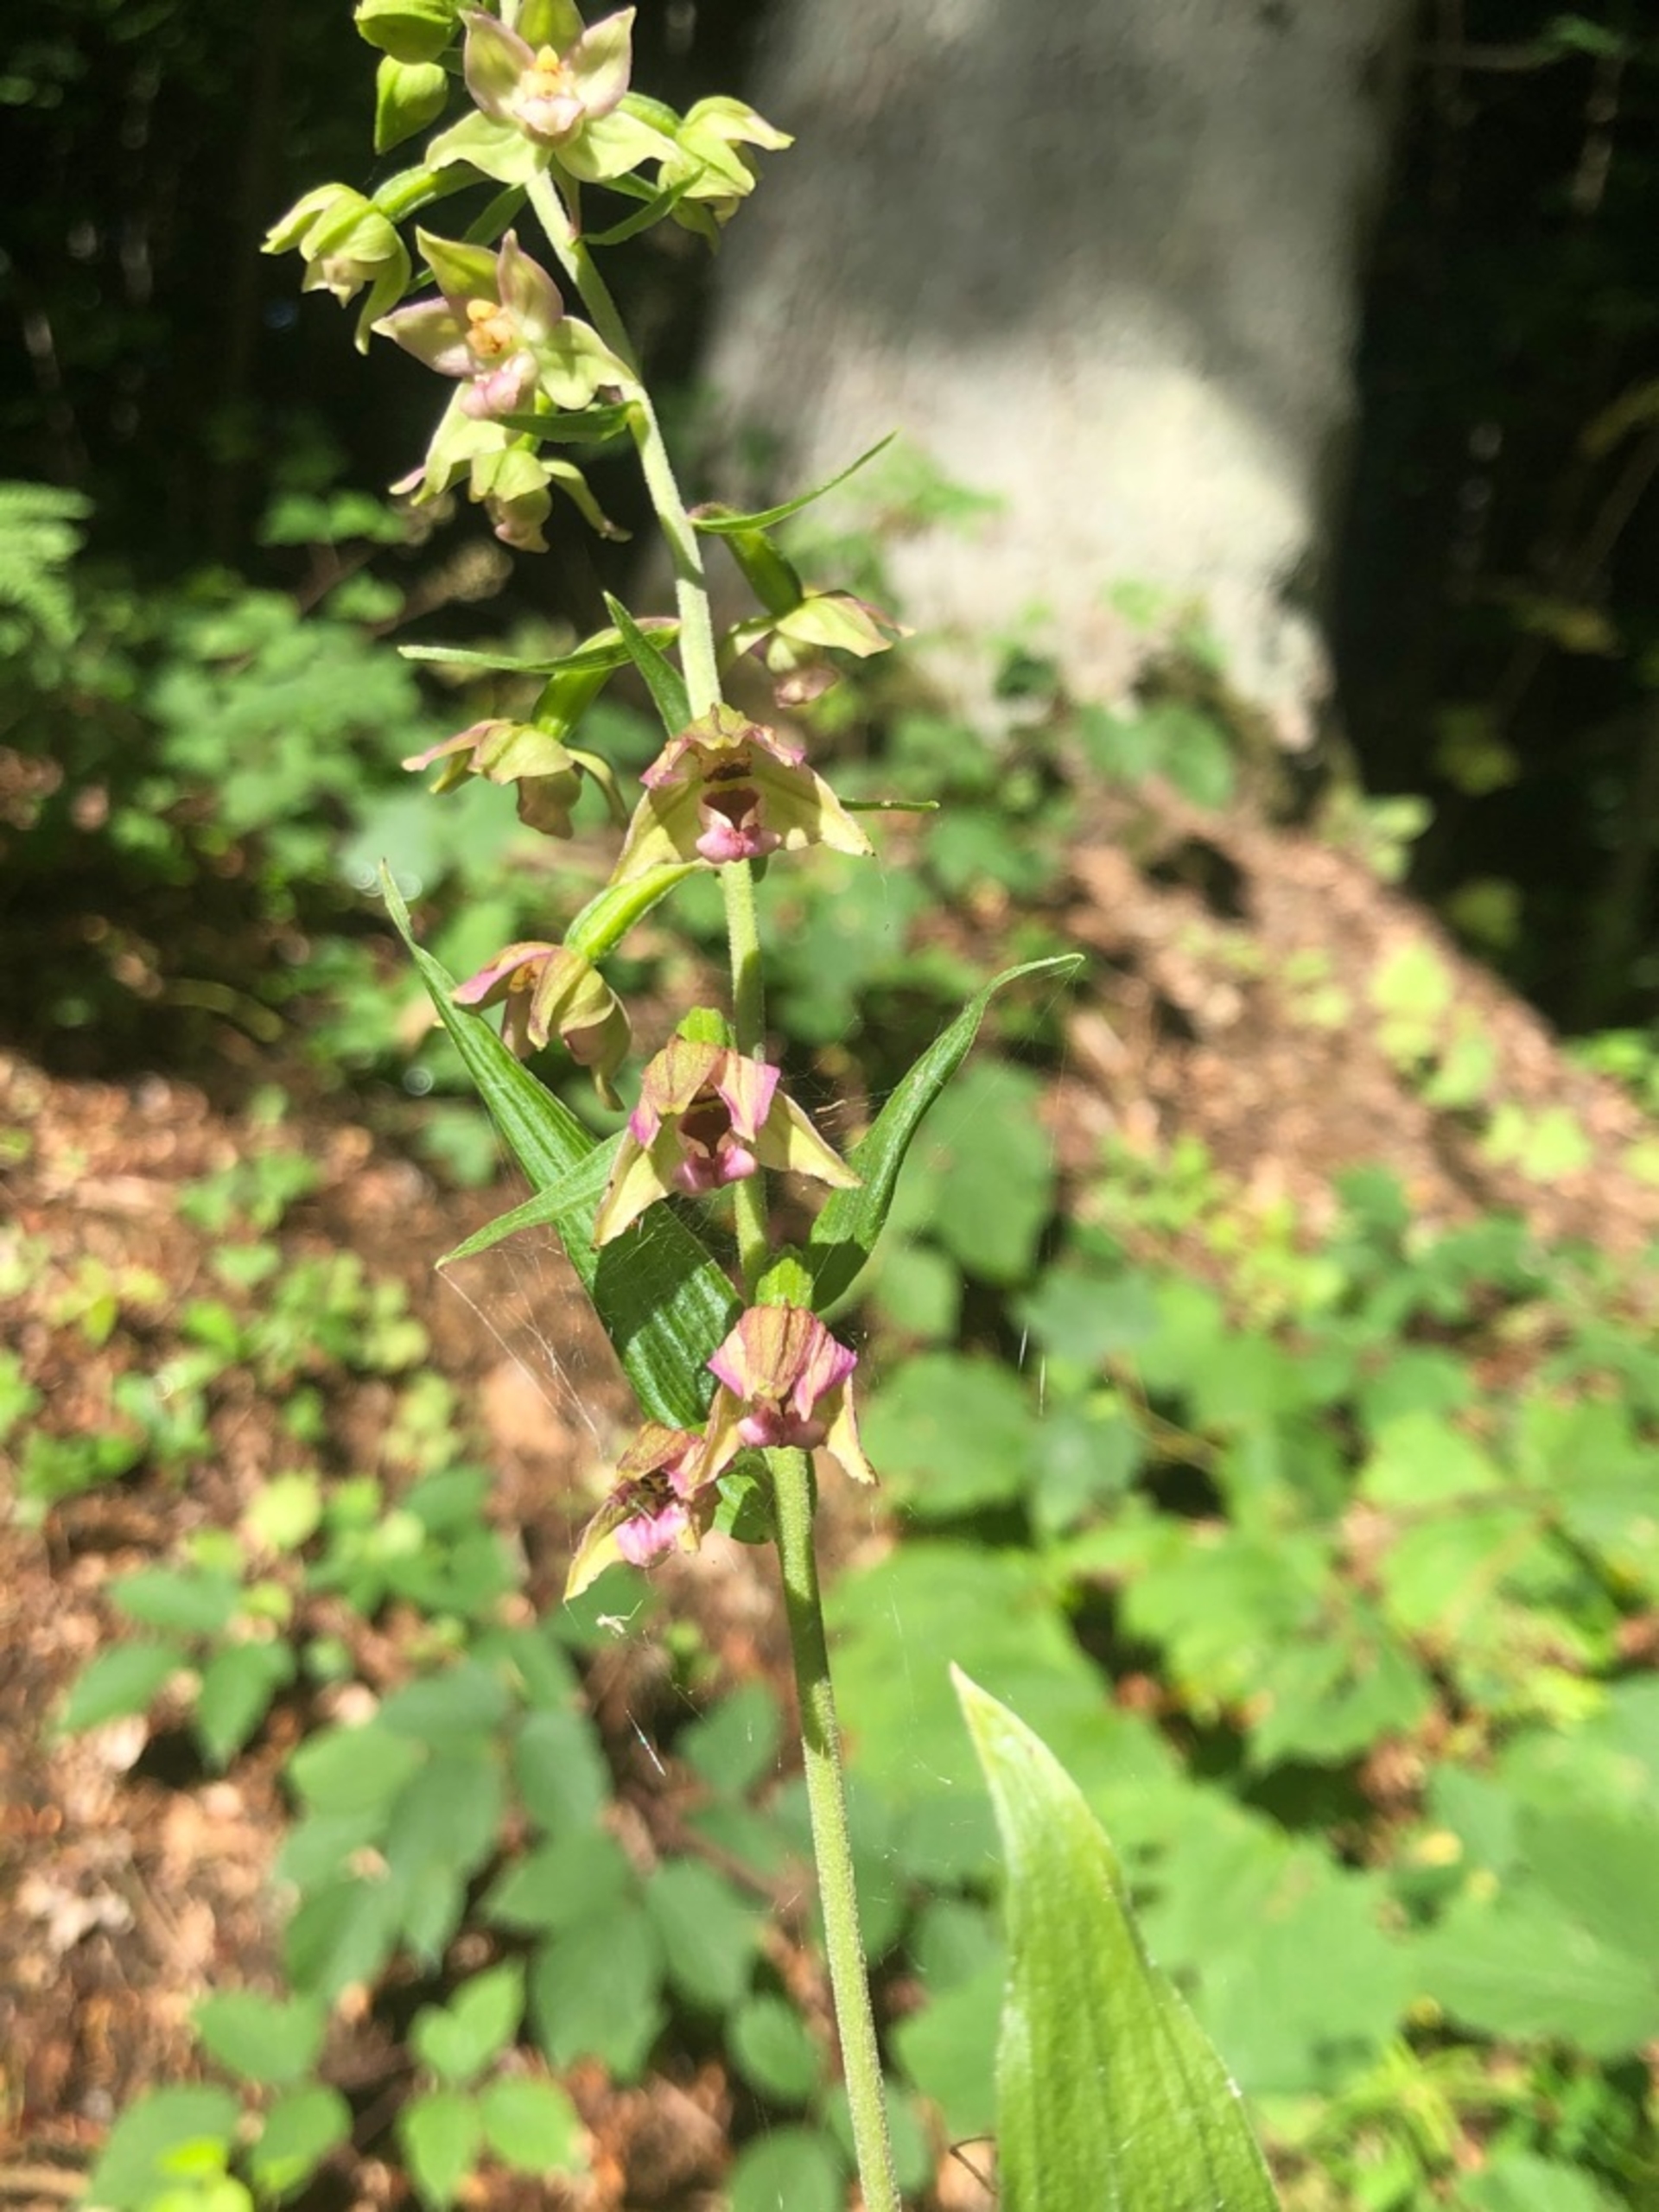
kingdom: Plantae
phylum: Tracheophyta
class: Liliopsida
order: Asparagales
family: Orchidaceae
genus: Epipactis
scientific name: Epipactis helleborine
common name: Skov-hullæbe
